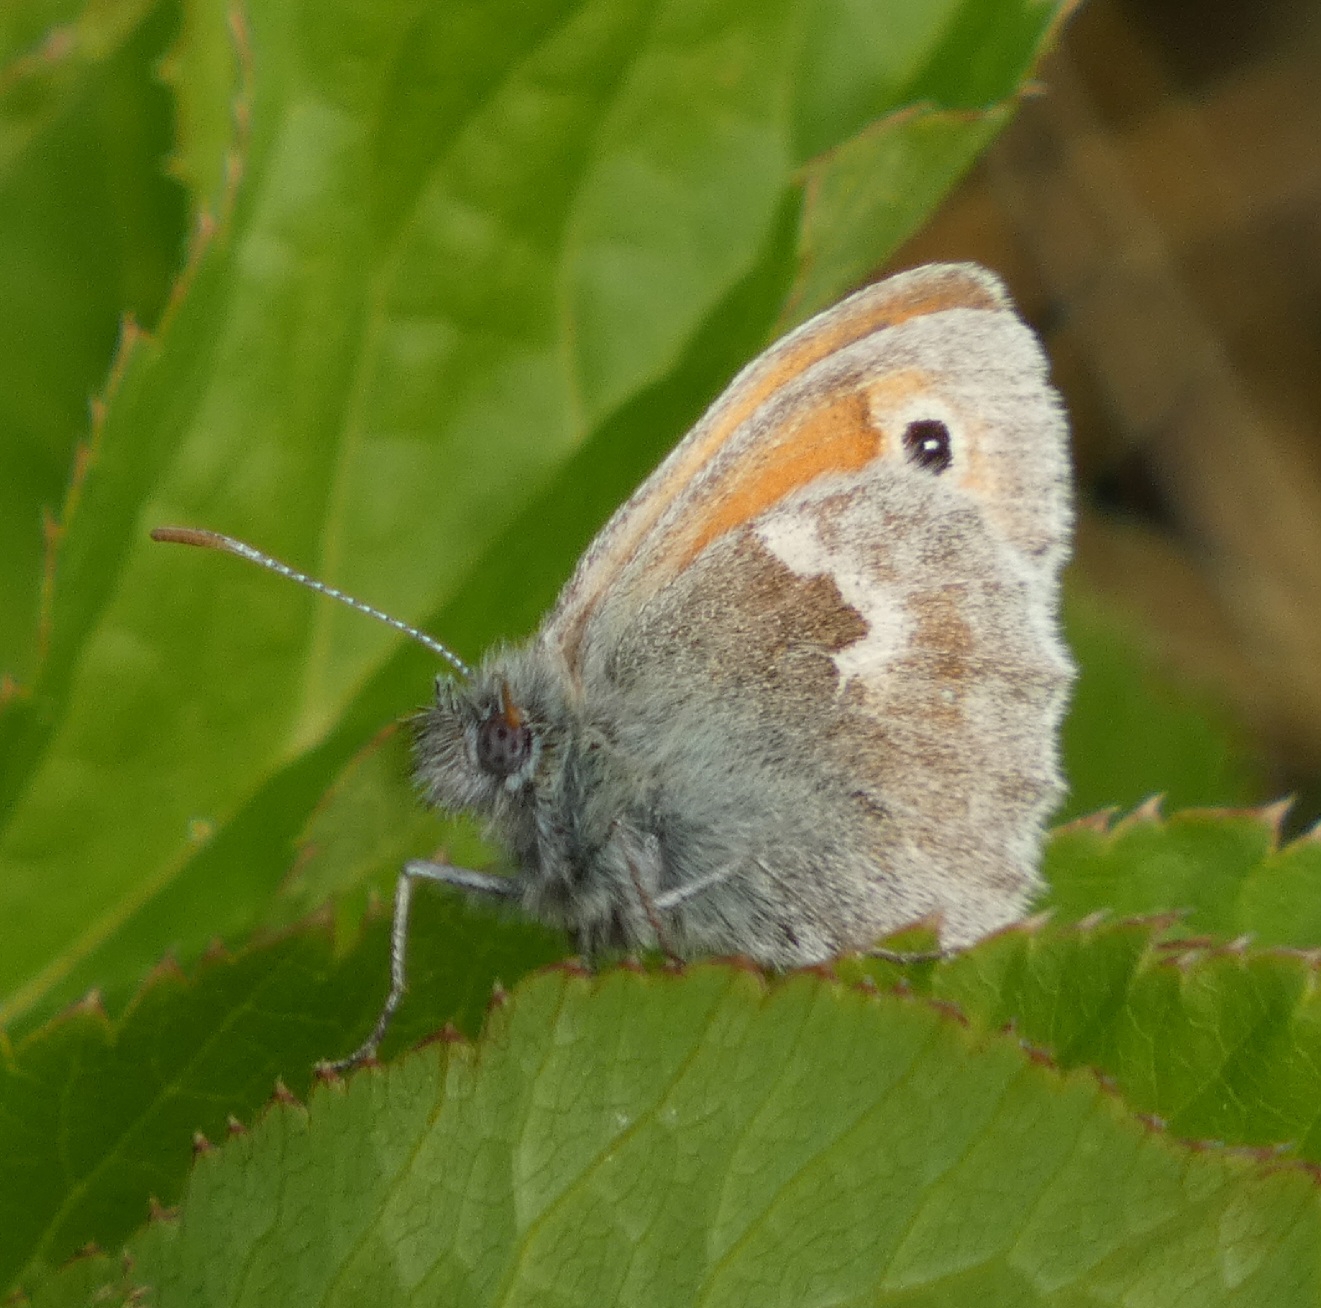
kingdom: Animalia
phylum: Arthropoda
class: Insecta
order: Lepidoptera
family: Nymphalidae
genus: Coenonympha
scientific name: Coenonympha pamphilus
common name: Okkergul randøje
